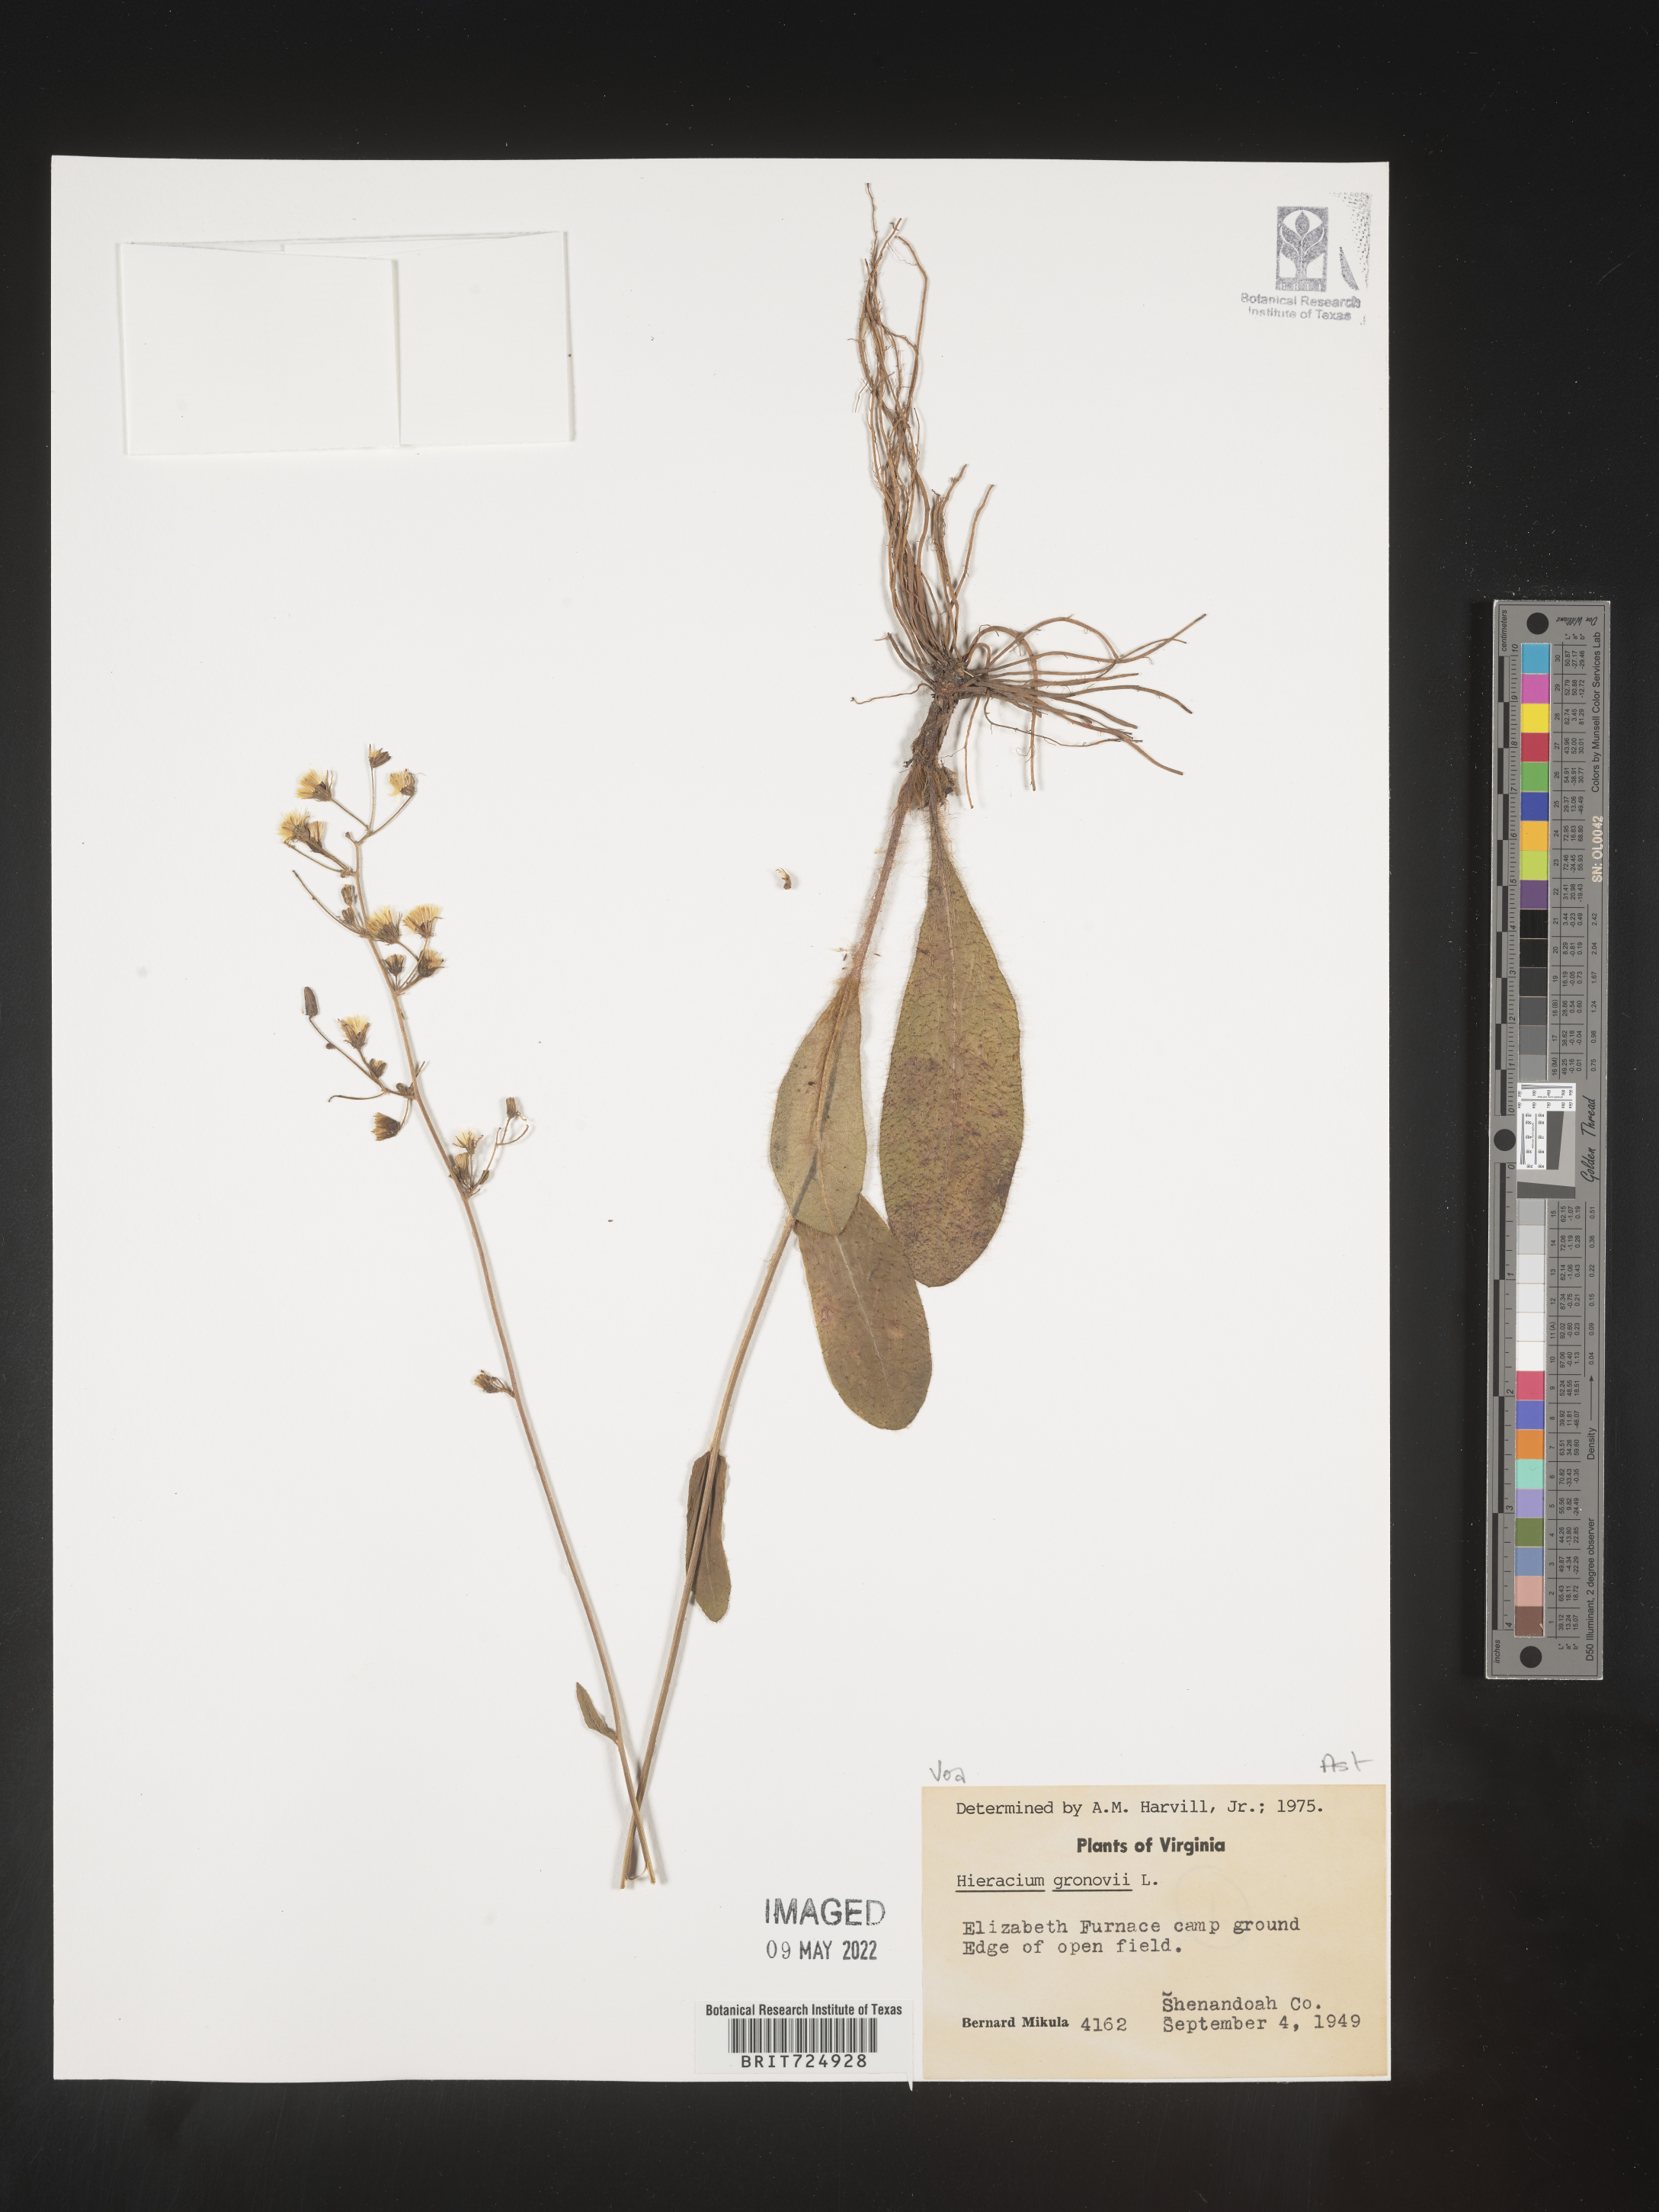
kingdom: Plantae
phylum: Tracheophyta
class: Magnoliopsida
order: Asterales
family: Asteraceae
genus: Hieracium
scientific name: Hieracium gronovii
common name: Beaked hawkweed
